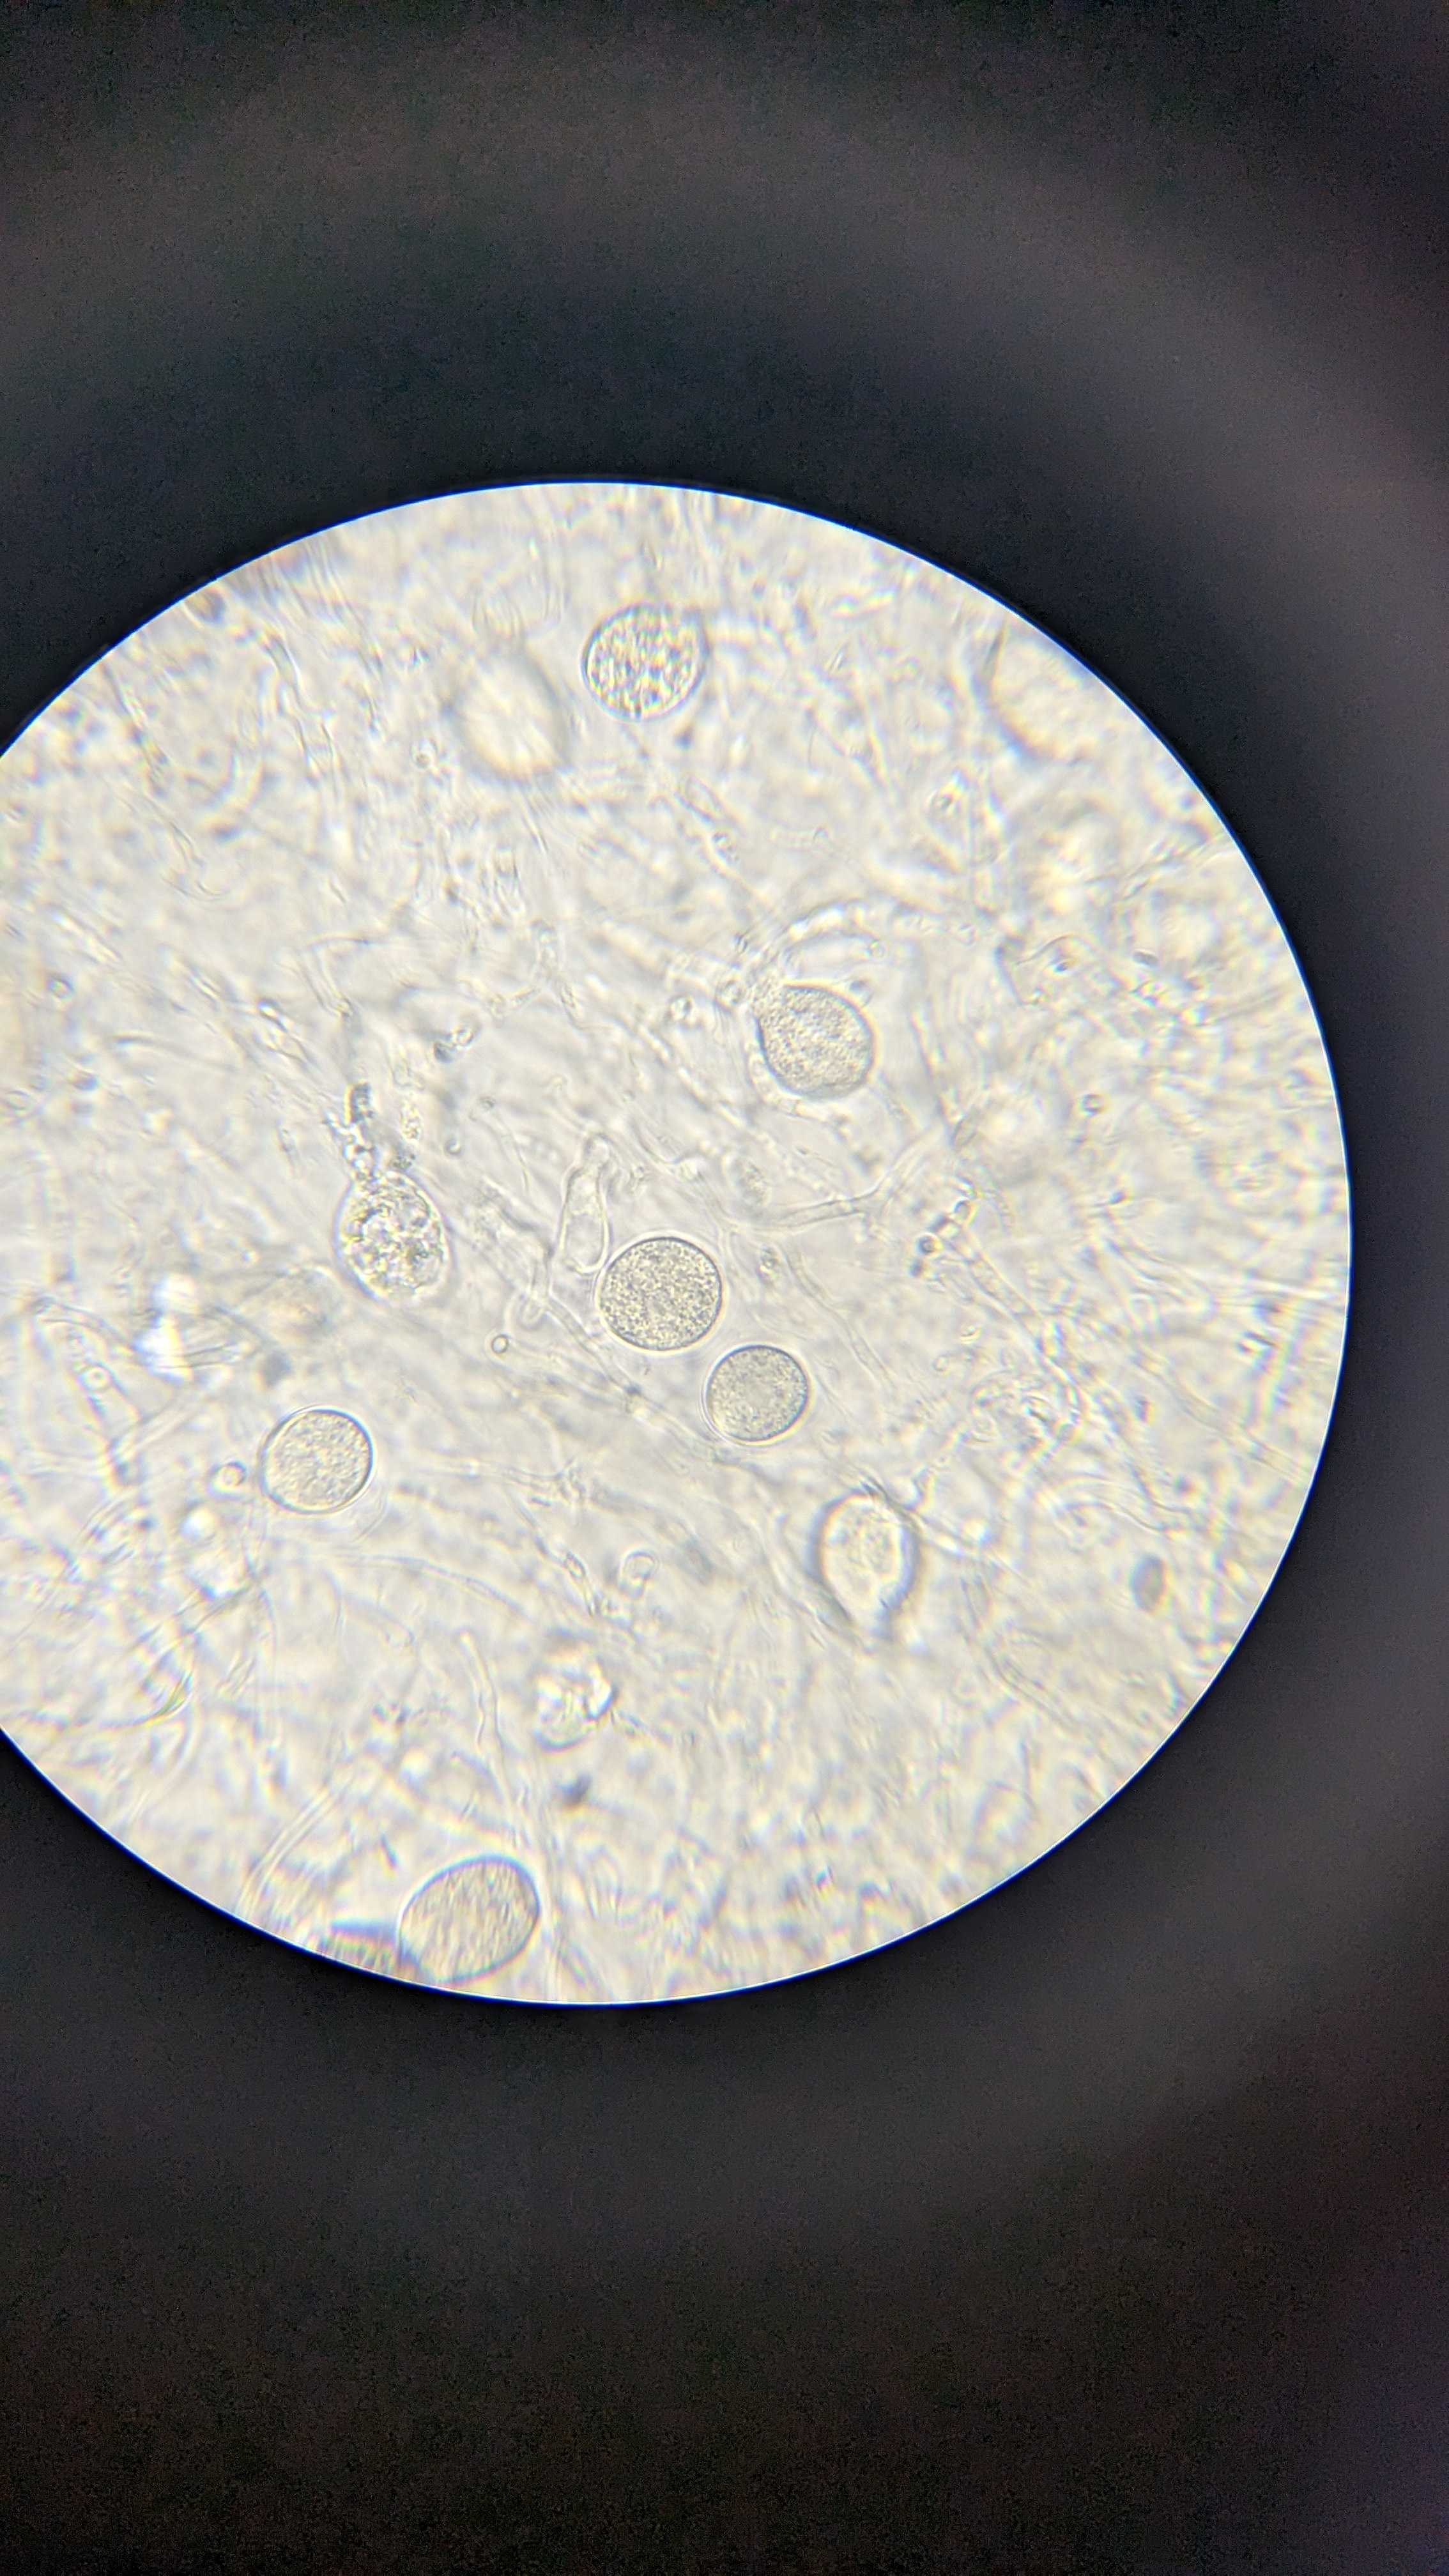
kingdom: Fungi
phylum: Basidiomycota
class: Agaricomycetes
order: Auriculariales
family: Hyaloriaceae
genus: Myxarium
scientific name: Myxarium nucleatum
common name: klar bævretop
